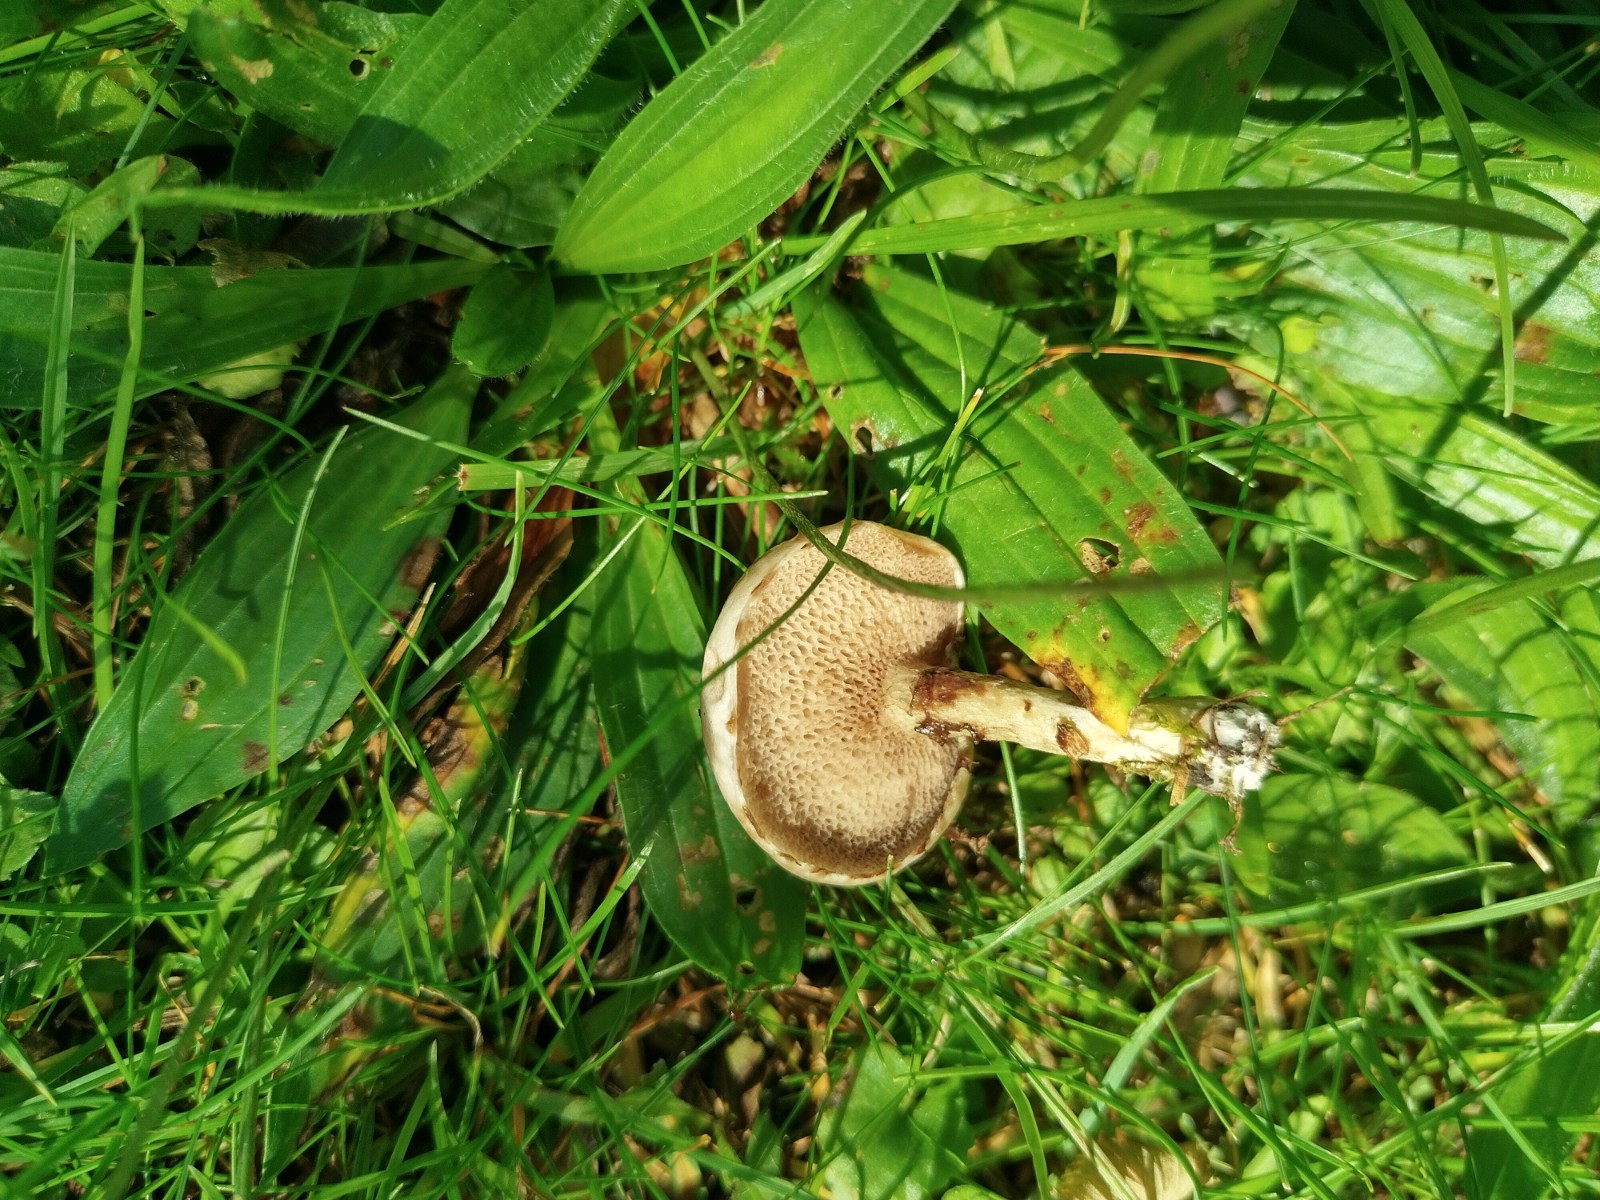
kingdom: Fungi
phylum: Basidiomycota
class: Agaricomycetes
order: Boletales
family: Suillaceae
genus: Suillus
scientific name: Suillus viscidus
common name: olivengrå slimrørhat
